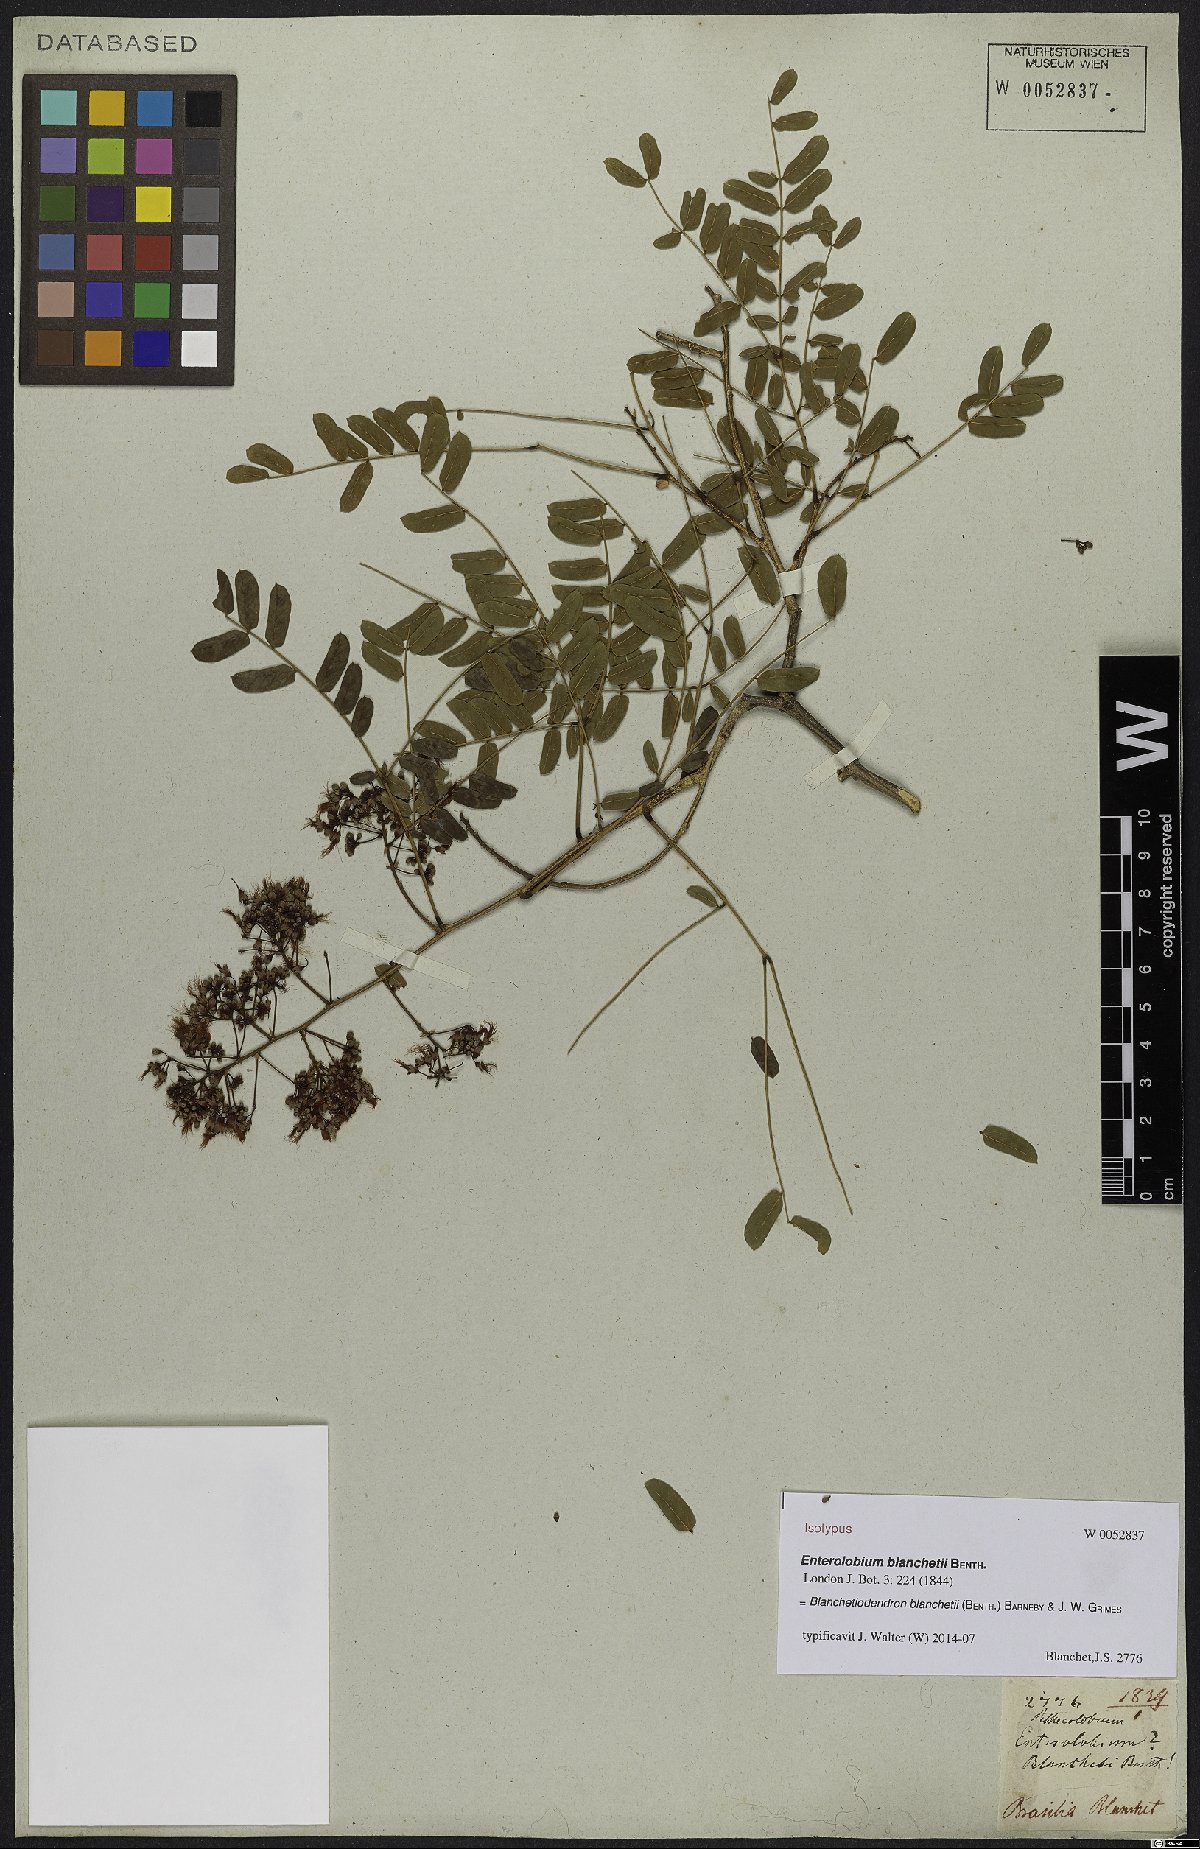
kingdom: Plantae
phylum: Tracheophyta
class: Magnoliopsida
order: Fabales
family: Fabaceae
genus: Blanchetiodendron
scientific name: Blanchetiodendron blanchetii
